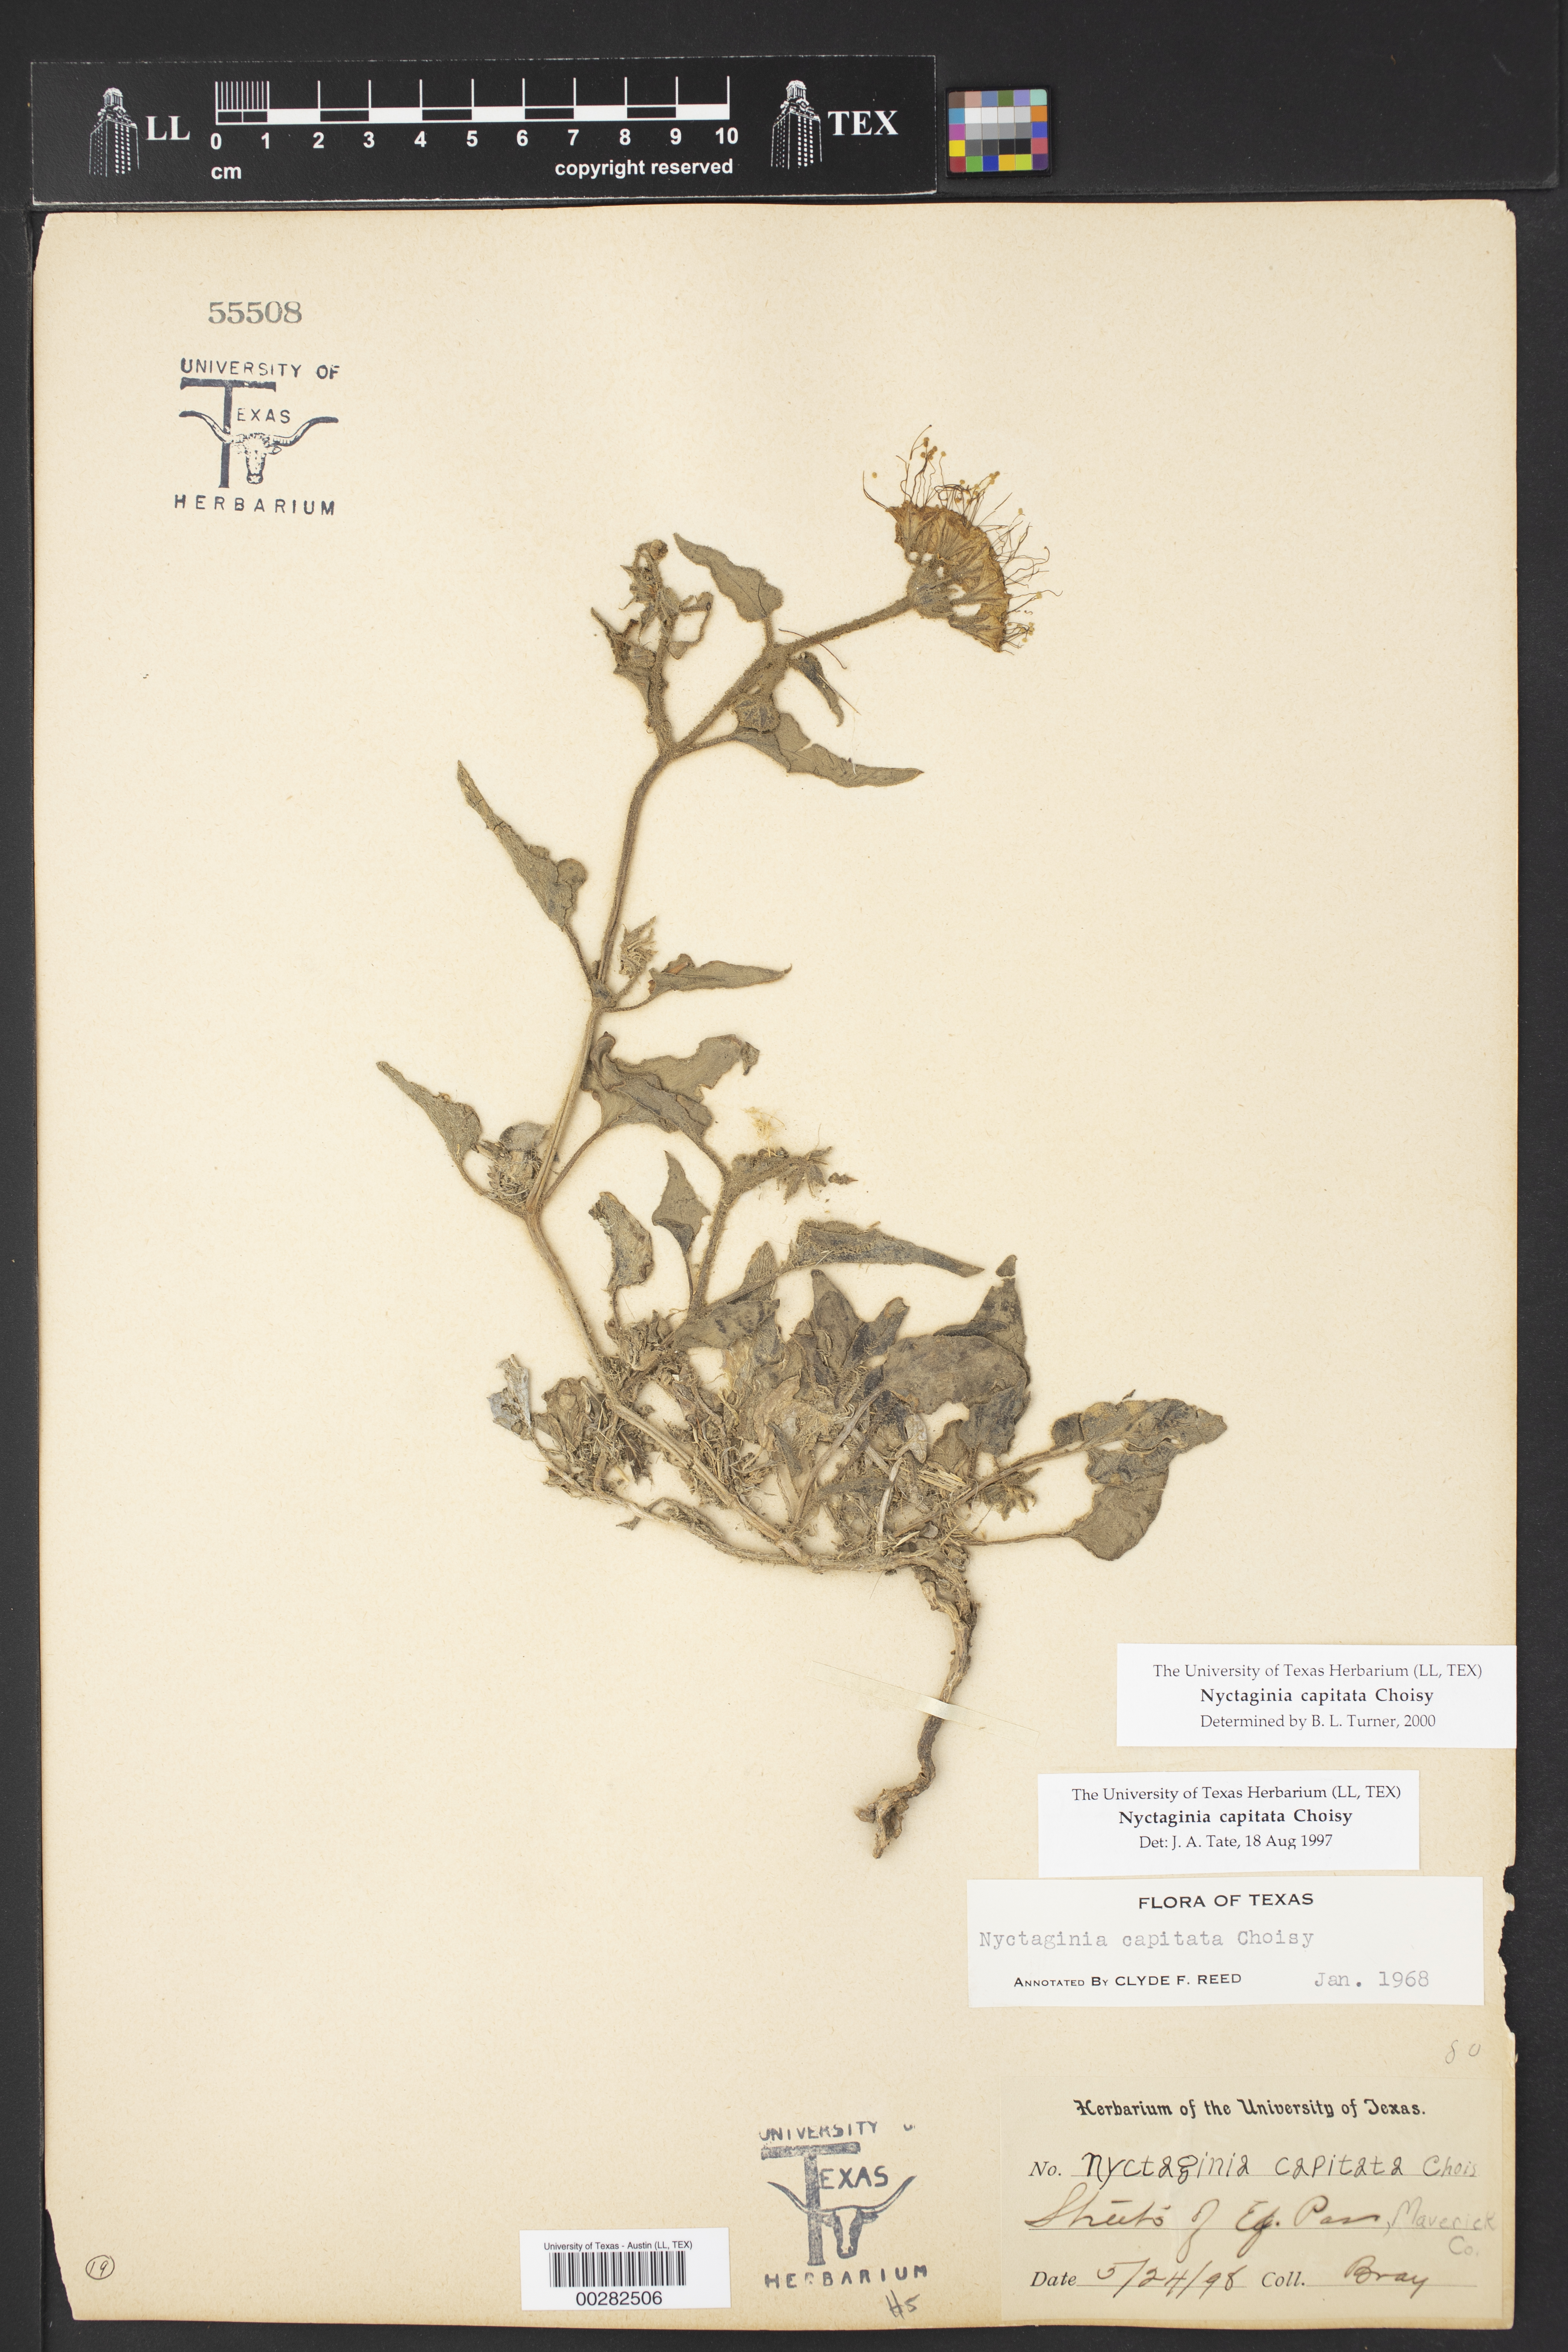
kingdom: Plantae
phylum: Tracheophyta
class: Magnoliopsida
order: Caryophyllales
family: Nyctaginaceae
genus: Nyctaginia
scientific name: Nyctaginia capitata
